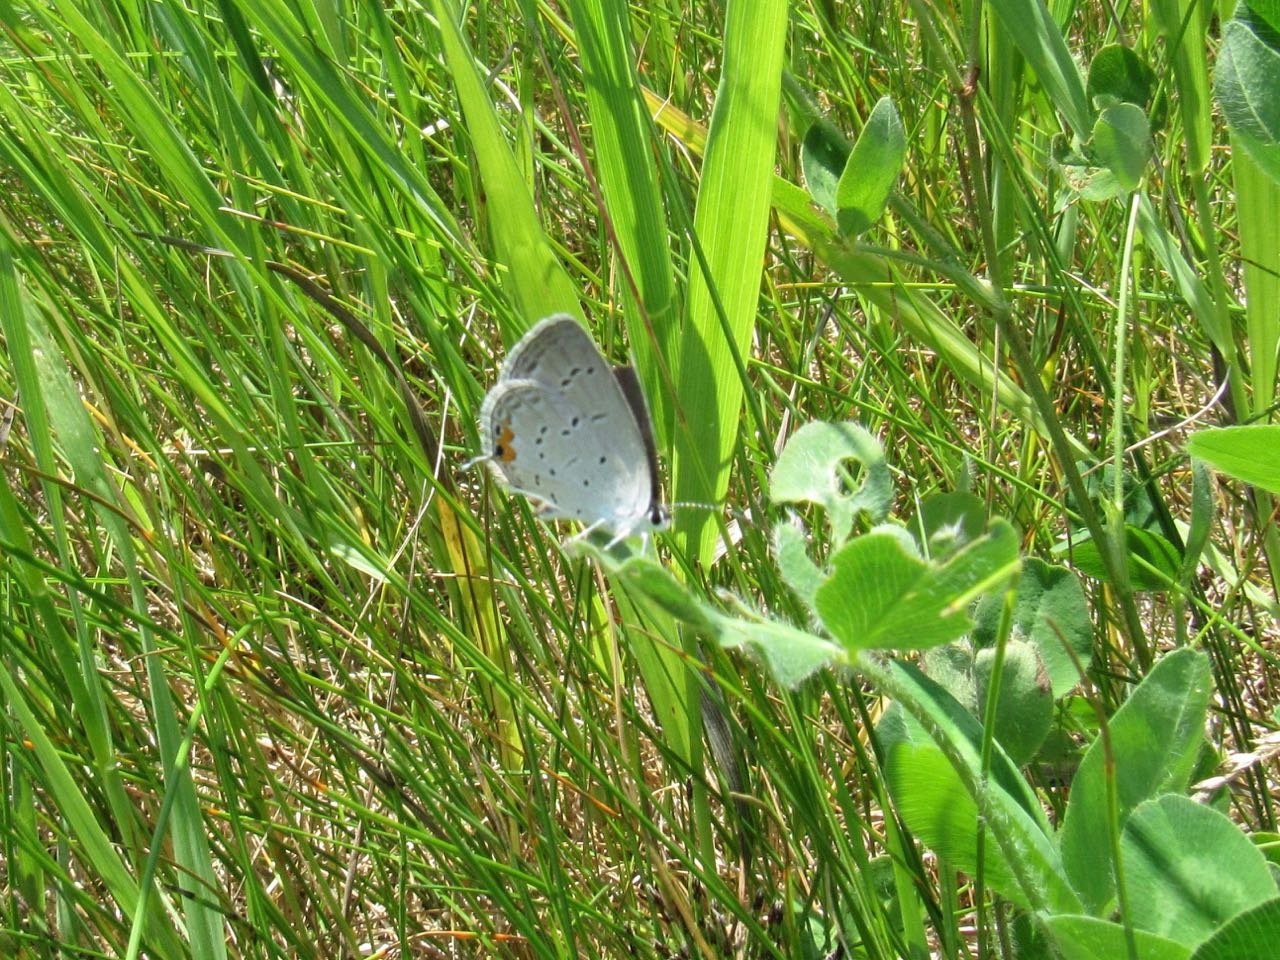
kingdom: Animalia
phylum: Arthropoda
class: Insecta
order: Lepidoptera
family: Lycaenidae
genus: Elkalyce
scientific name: Elkalyce comyntas
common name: Eastern Tailed-Blue
